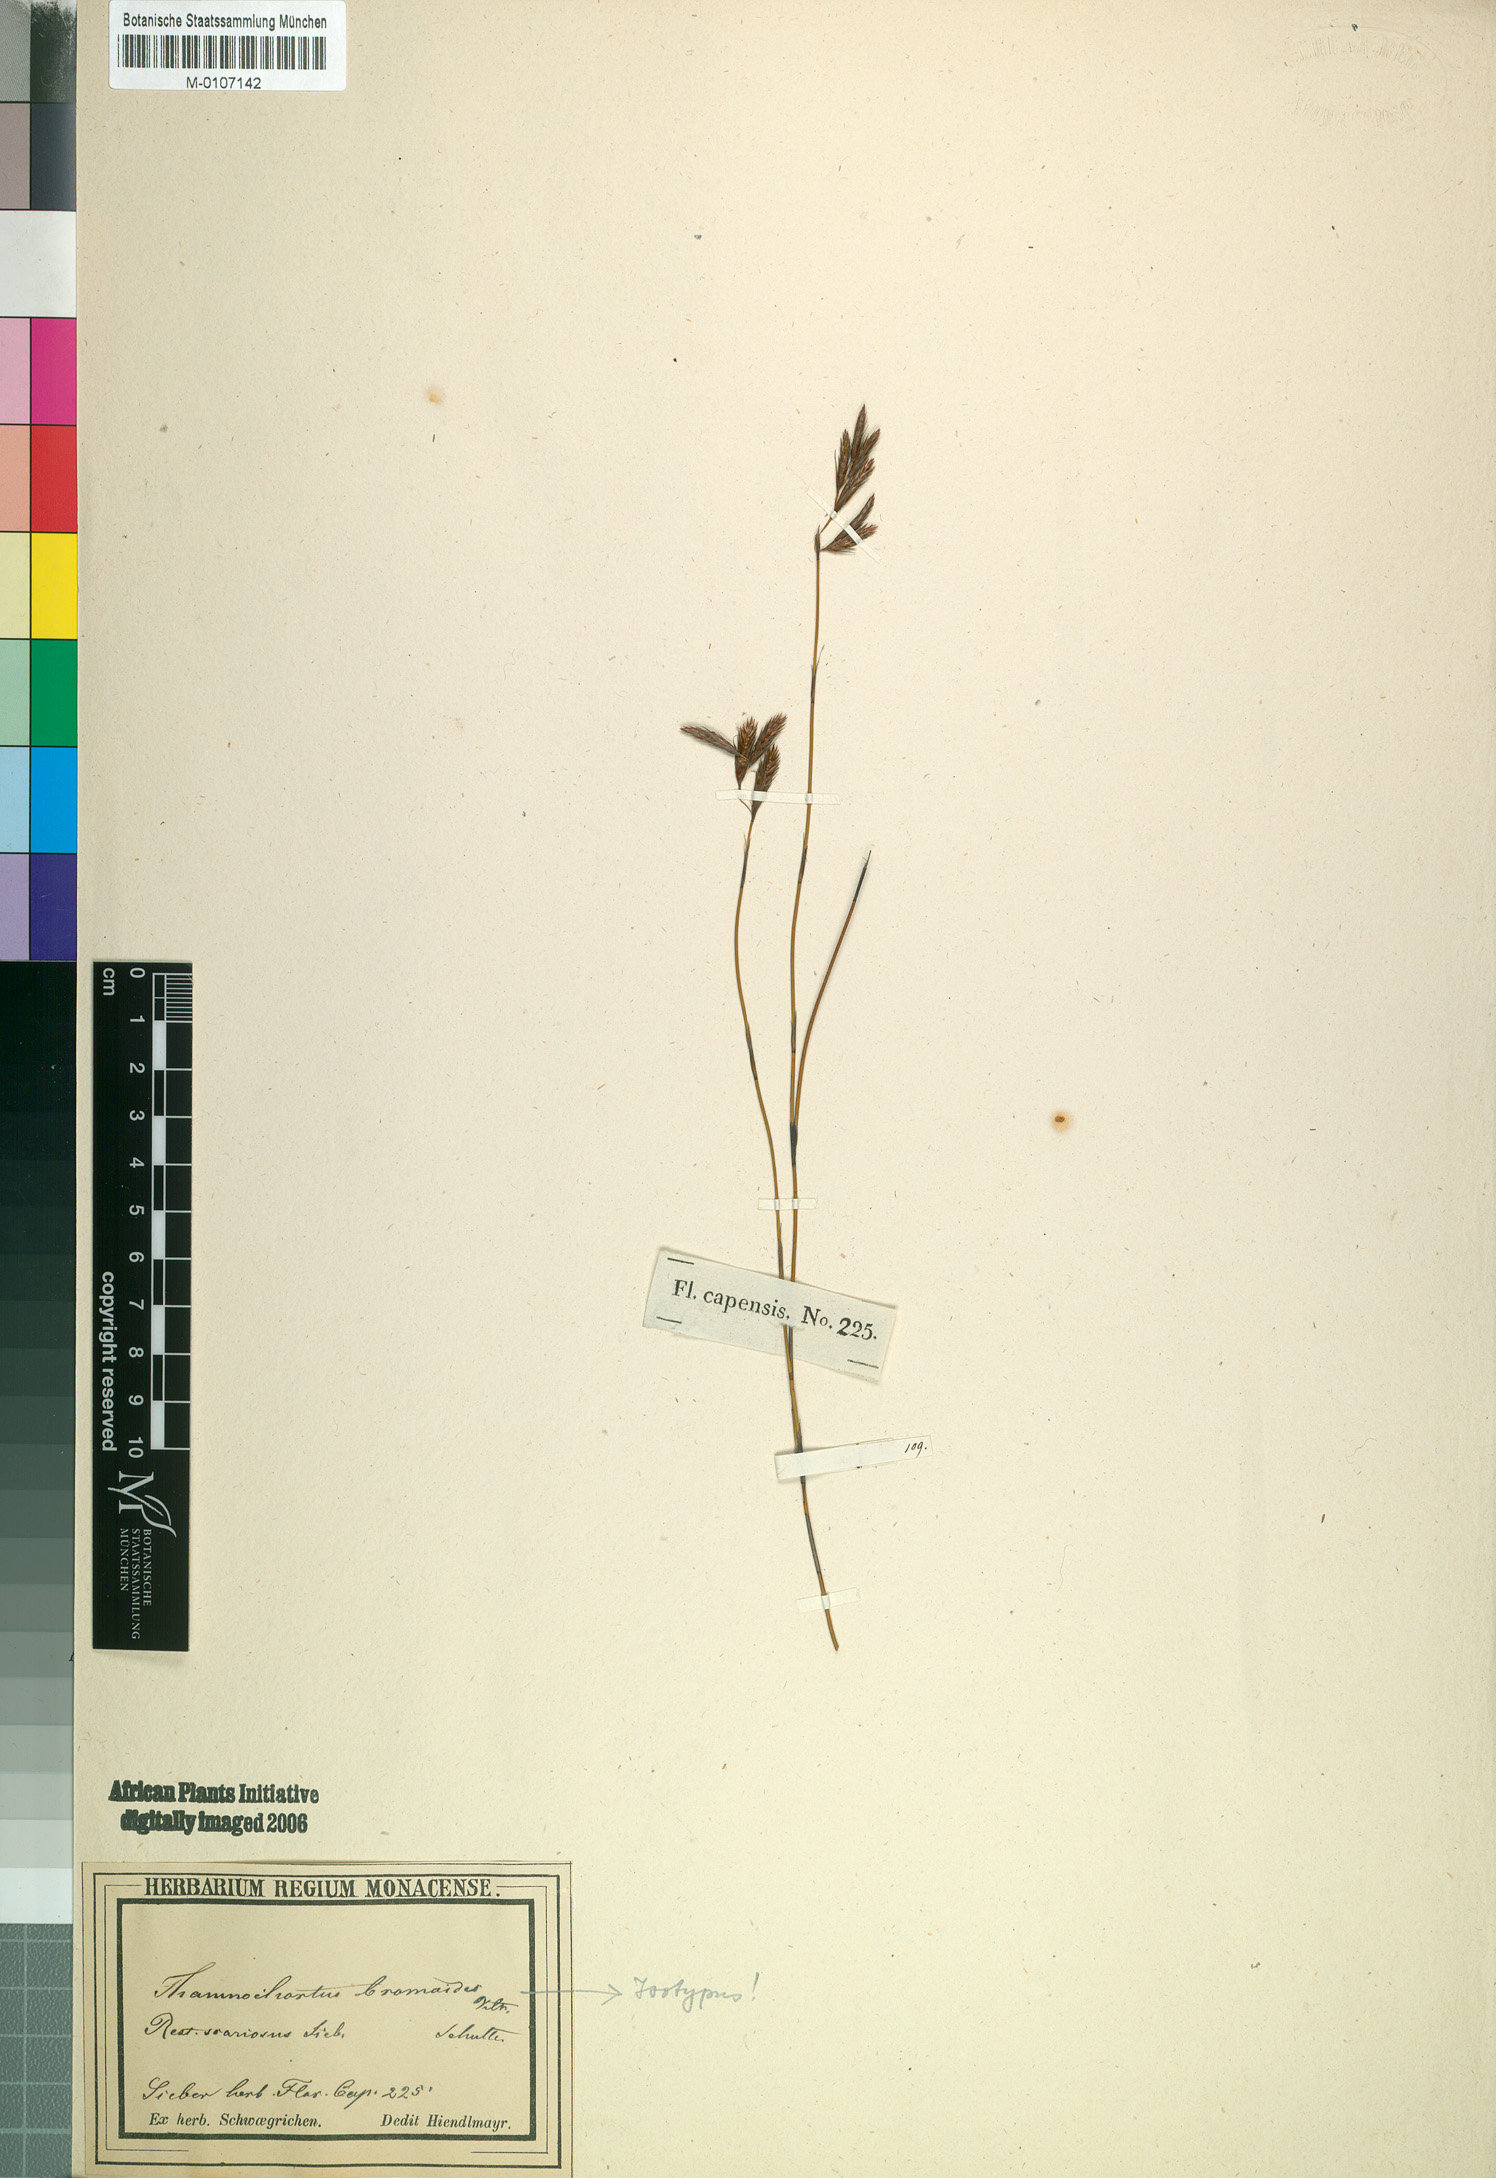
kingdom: Plantae
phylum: Tracheophyta
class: Liliopsida
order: Poales
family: Restionaceae
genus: Thamnochortus
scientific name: Thamnochortus lucens
